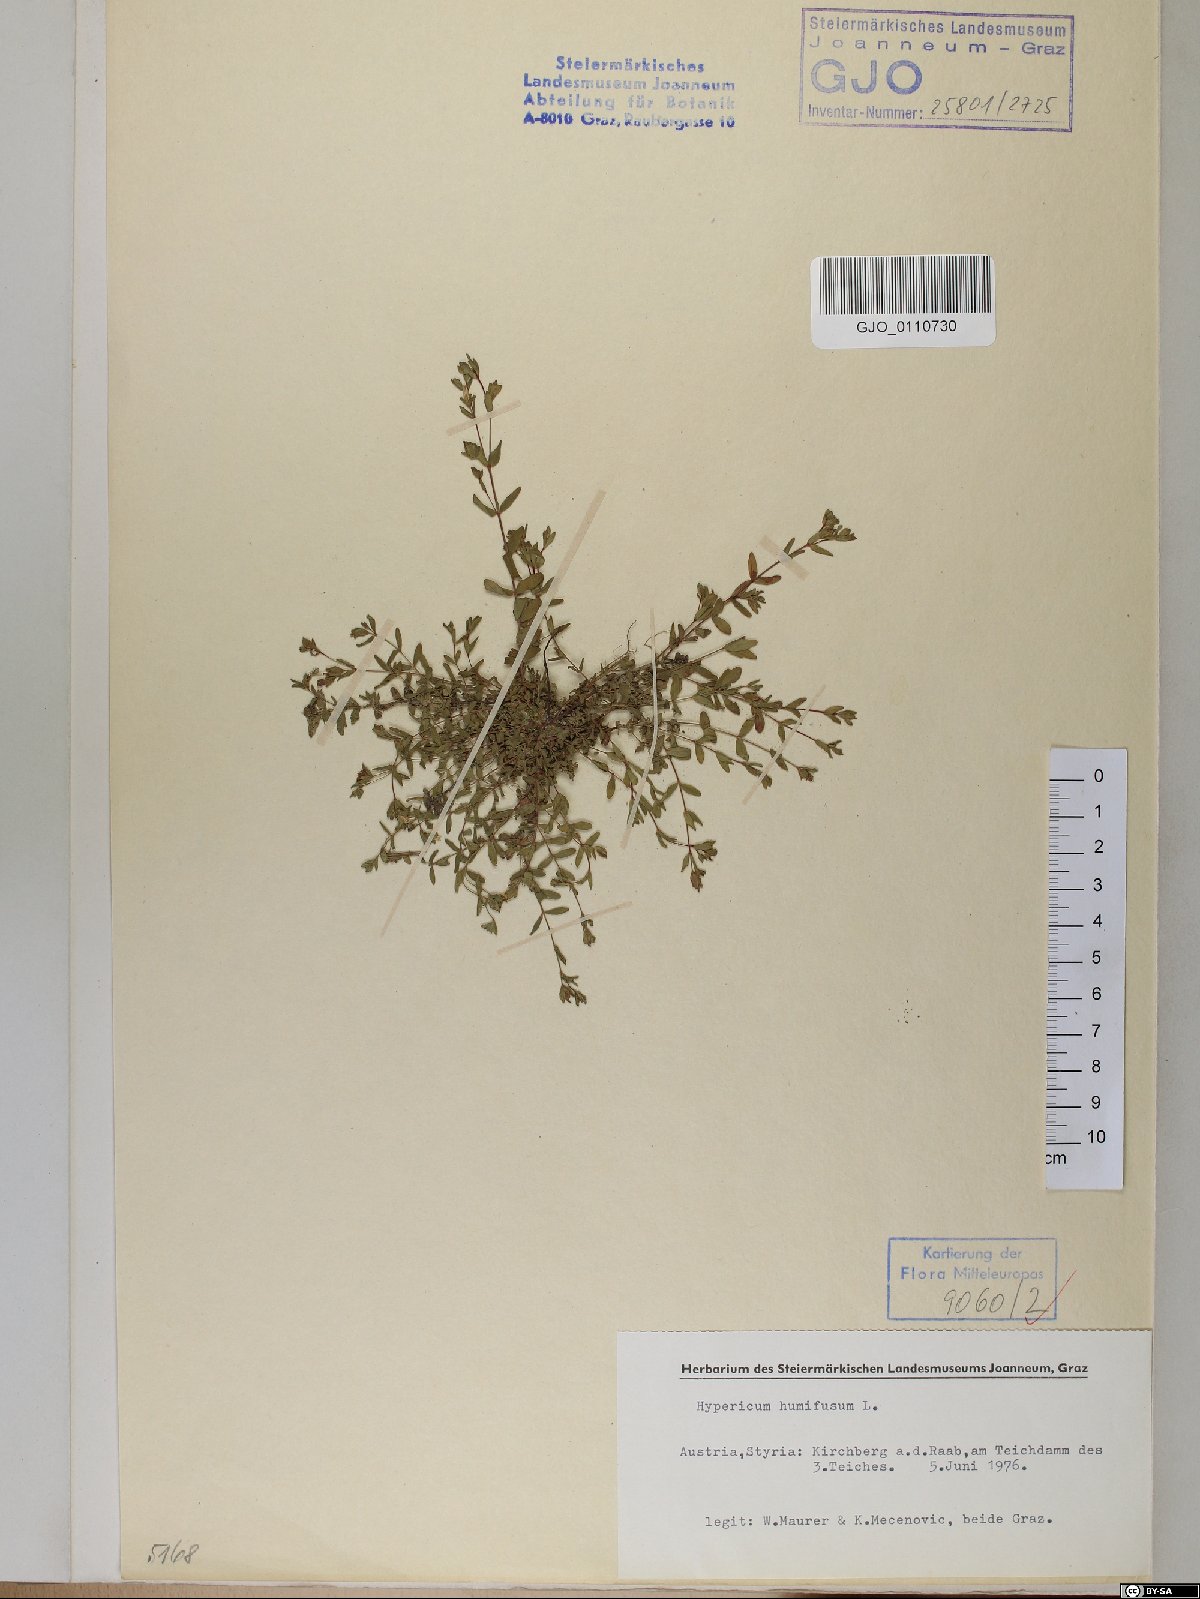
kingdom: Plantae
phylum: Tracheophyta
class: Magnoliopsida
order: Malpighiales
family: Hypericaceae
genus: Hypericum
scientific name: Hypericum humifusum
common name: Trailing st. john's-wort
